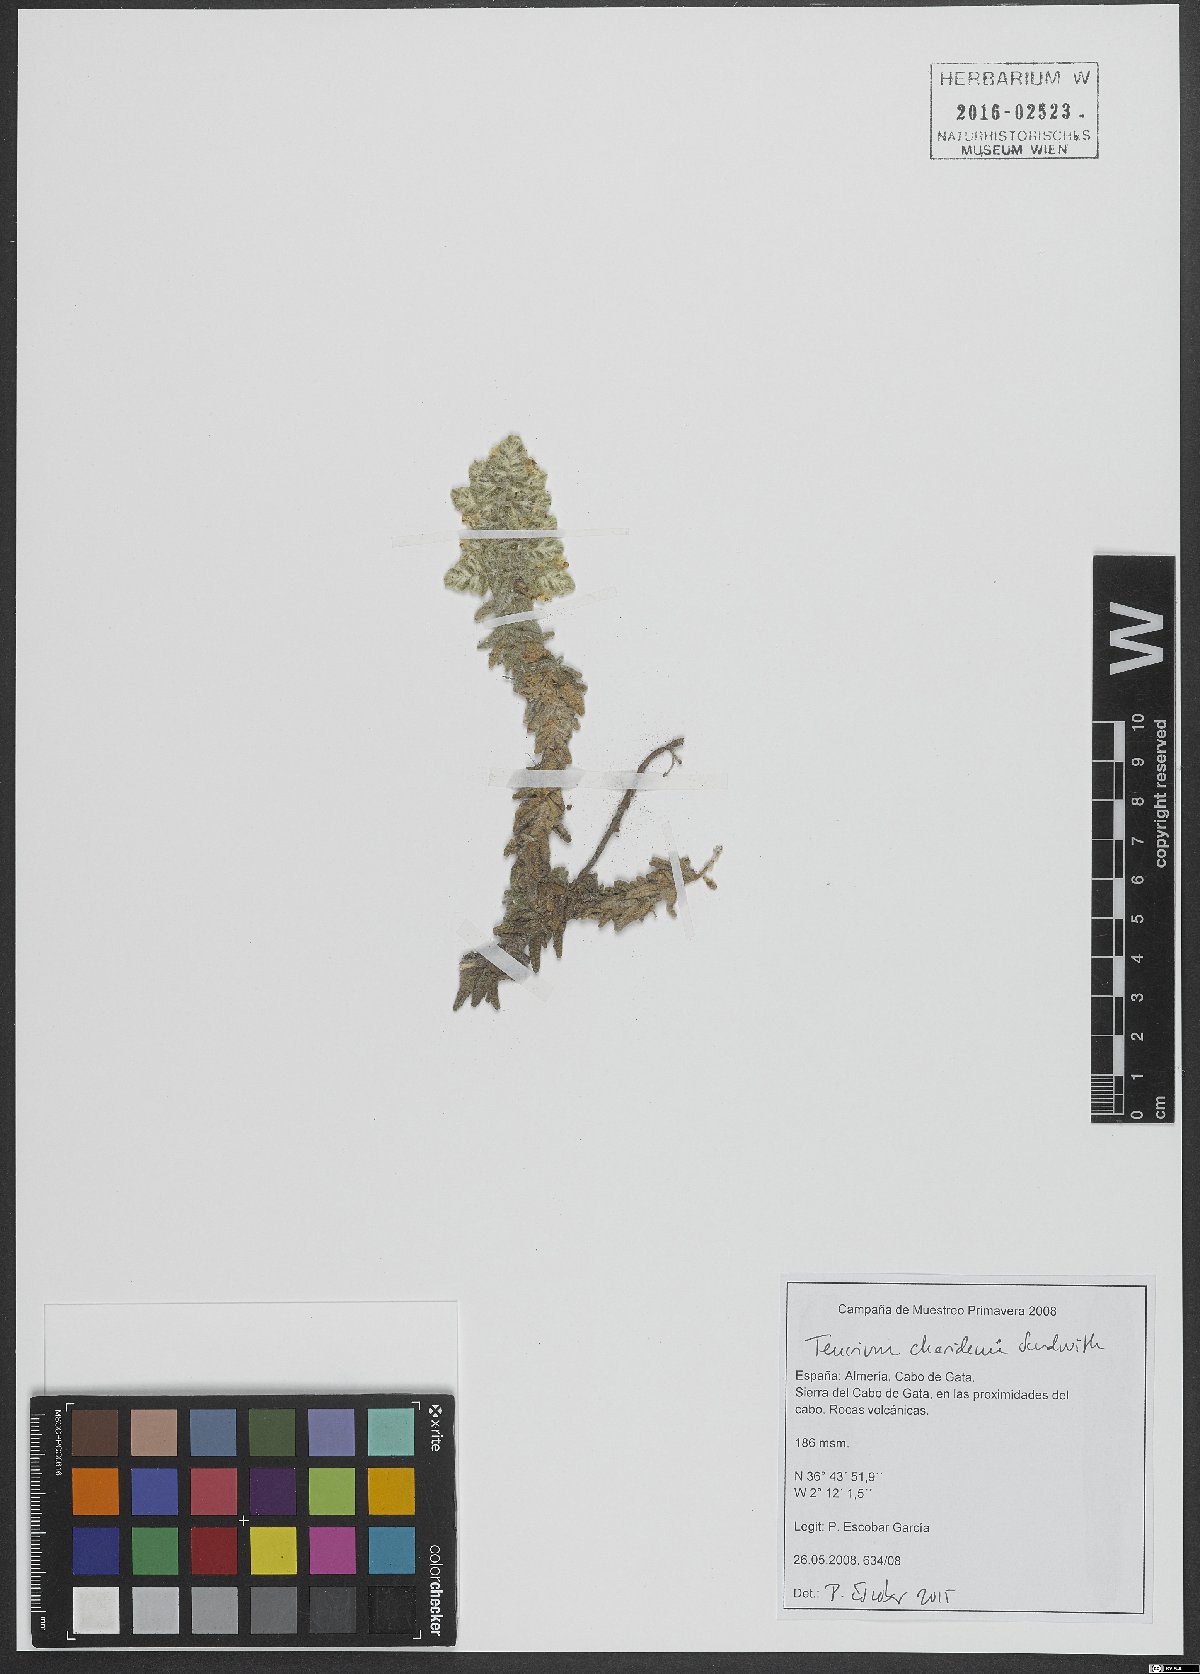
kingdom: Plantae
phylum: Tracheophyta
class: Magnoliopsida
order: Lamiales
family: Lamiaceae
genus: Teucrium
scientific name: Teucrium charidemi
